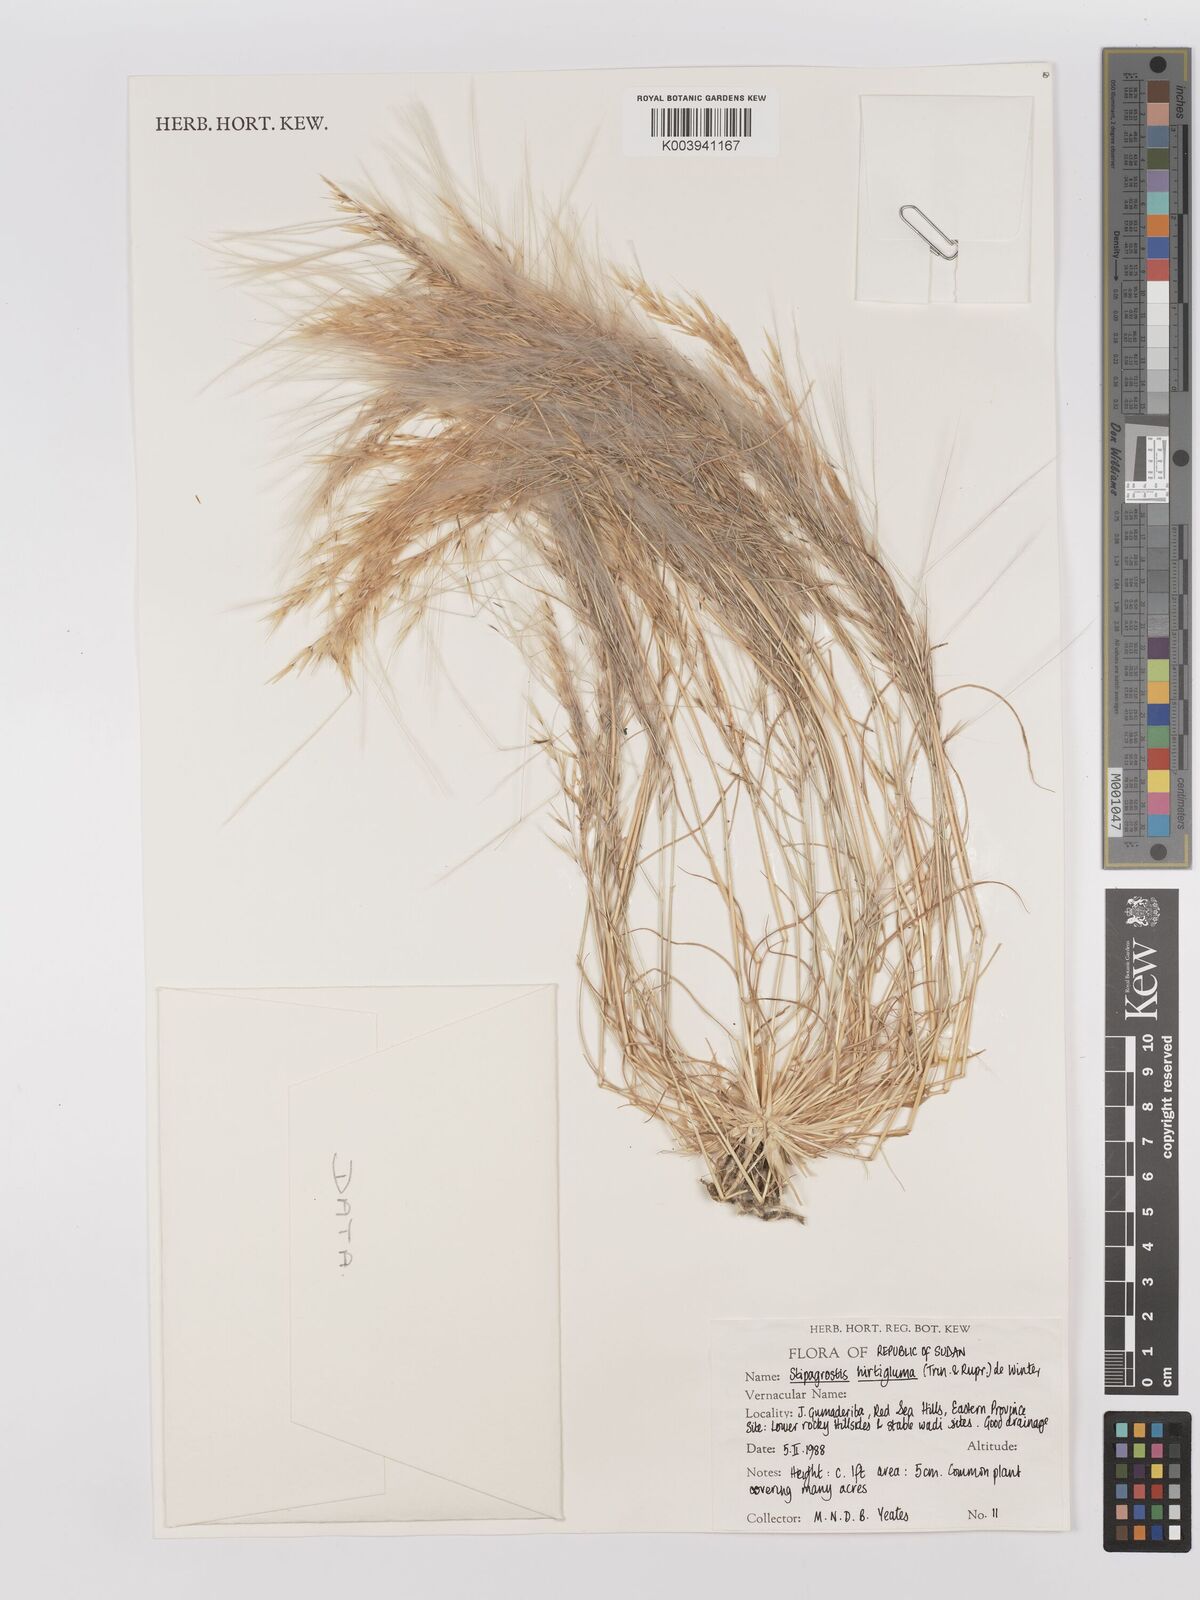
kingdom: Plantae
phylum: Tracheophyta
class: Liliopsida
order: Poales
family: Poaceae
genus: Stipagrostis
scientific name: Stipagrostis hirtigluma
